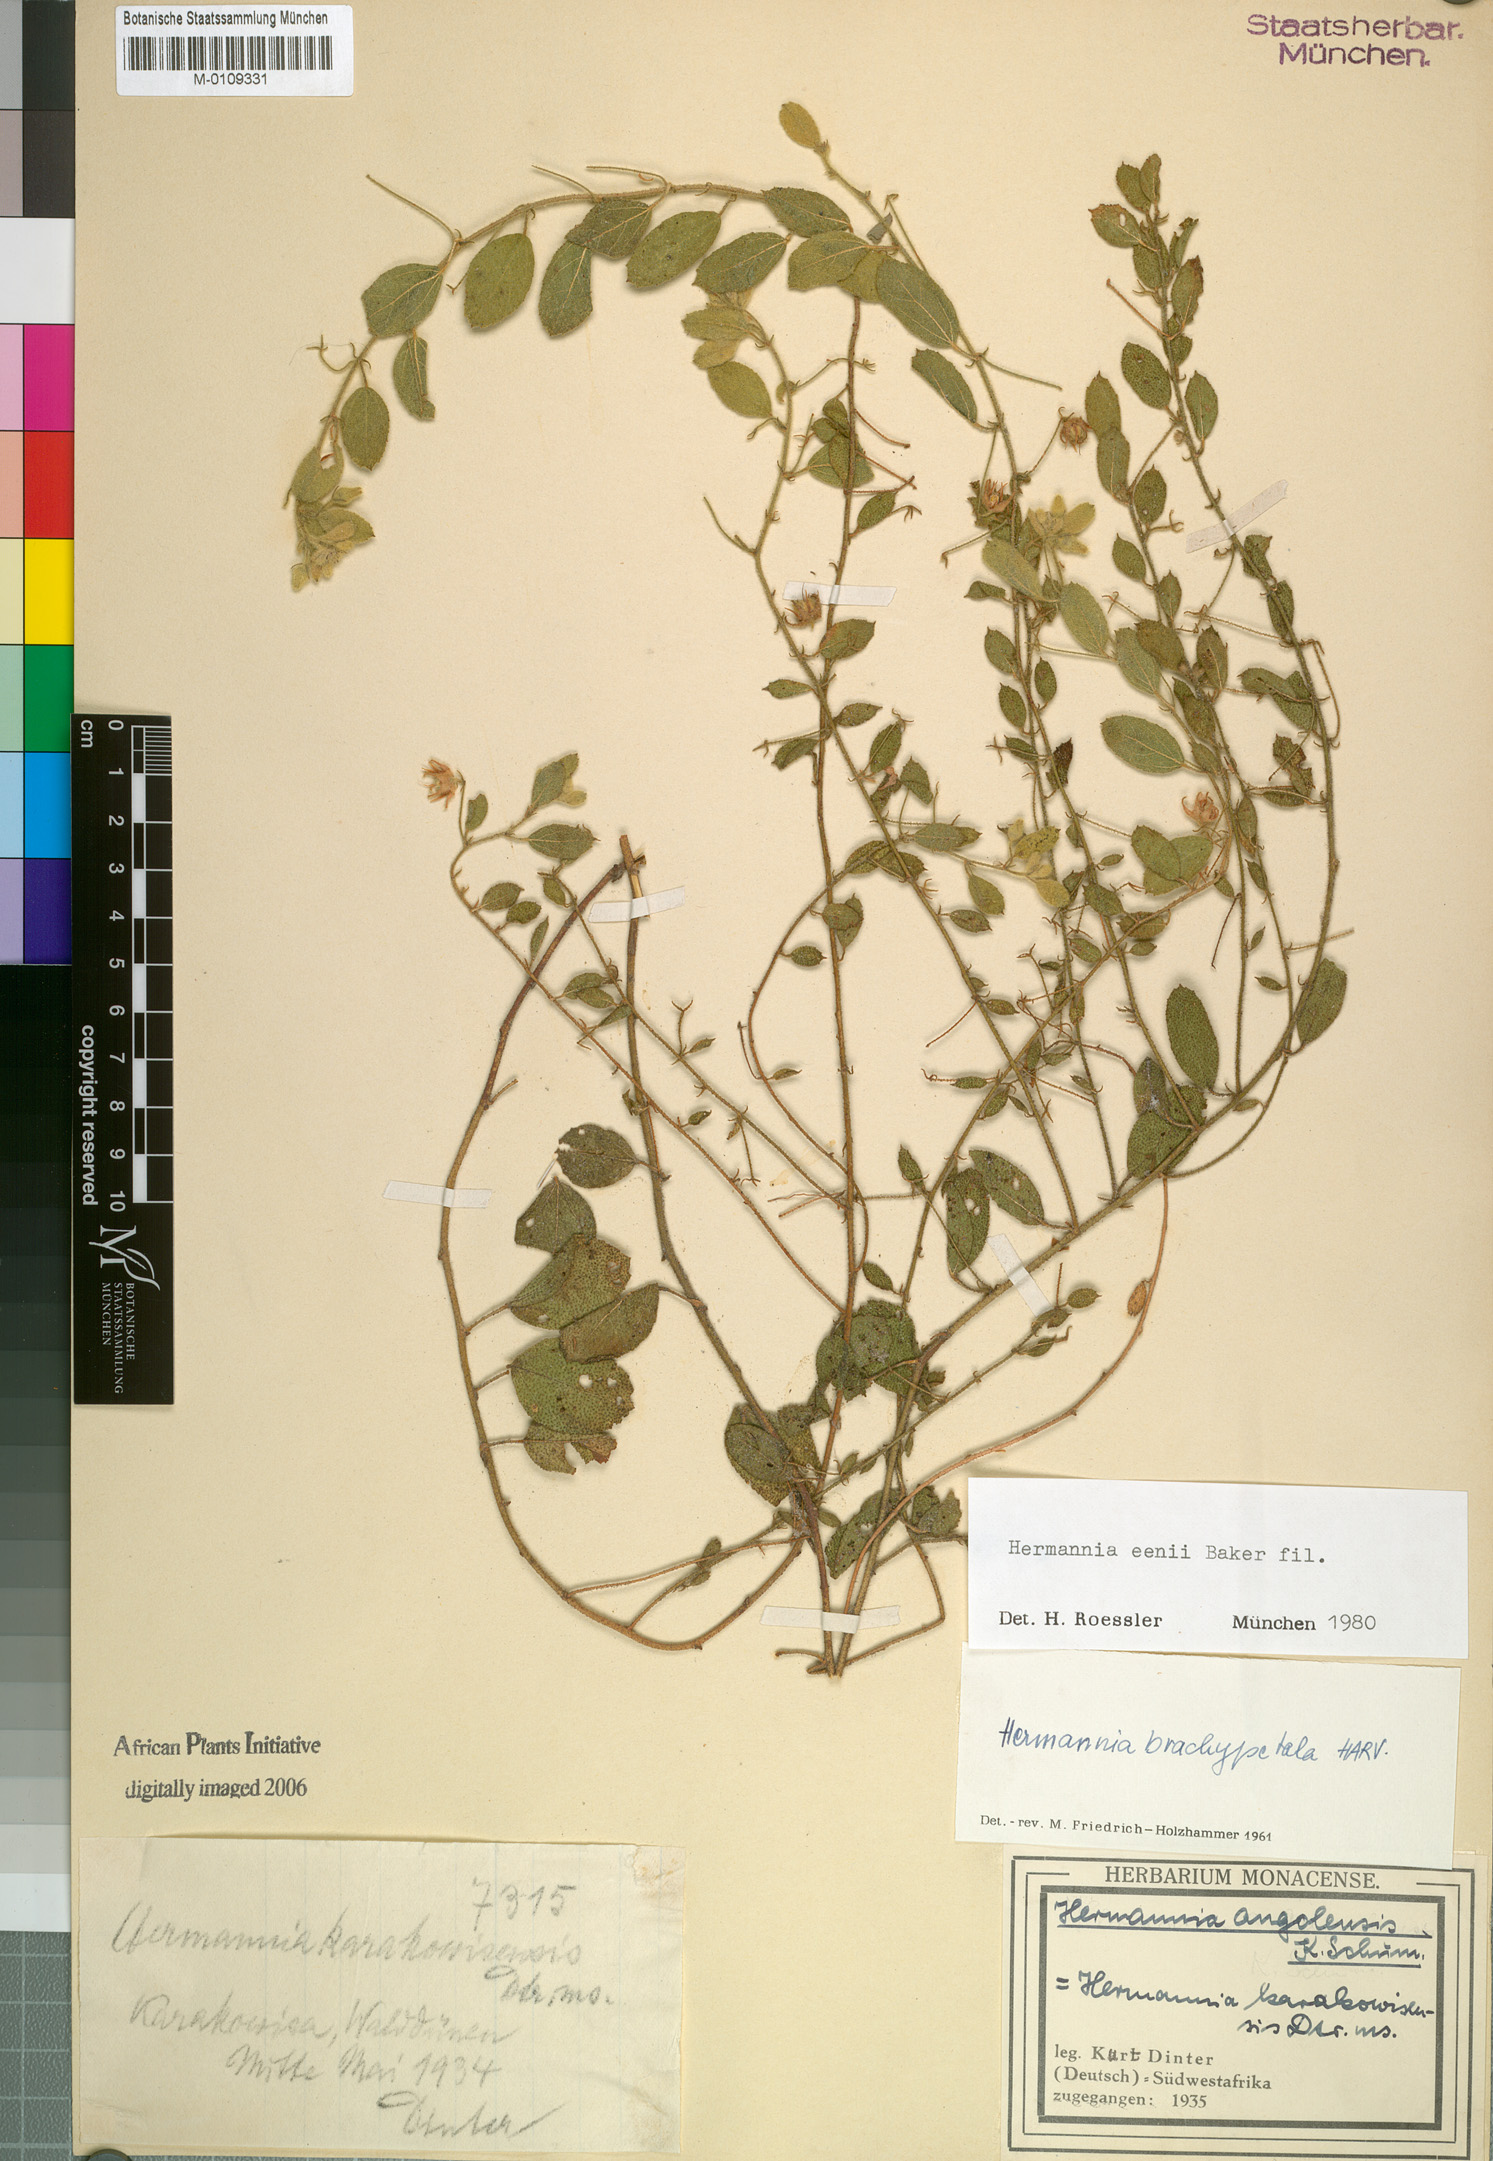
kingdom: Plantae
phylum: Tracheophyta
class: Magnoliopsida
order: Malvales
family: Malvaceae
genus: Hermannia
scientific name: Hermannia eenii
